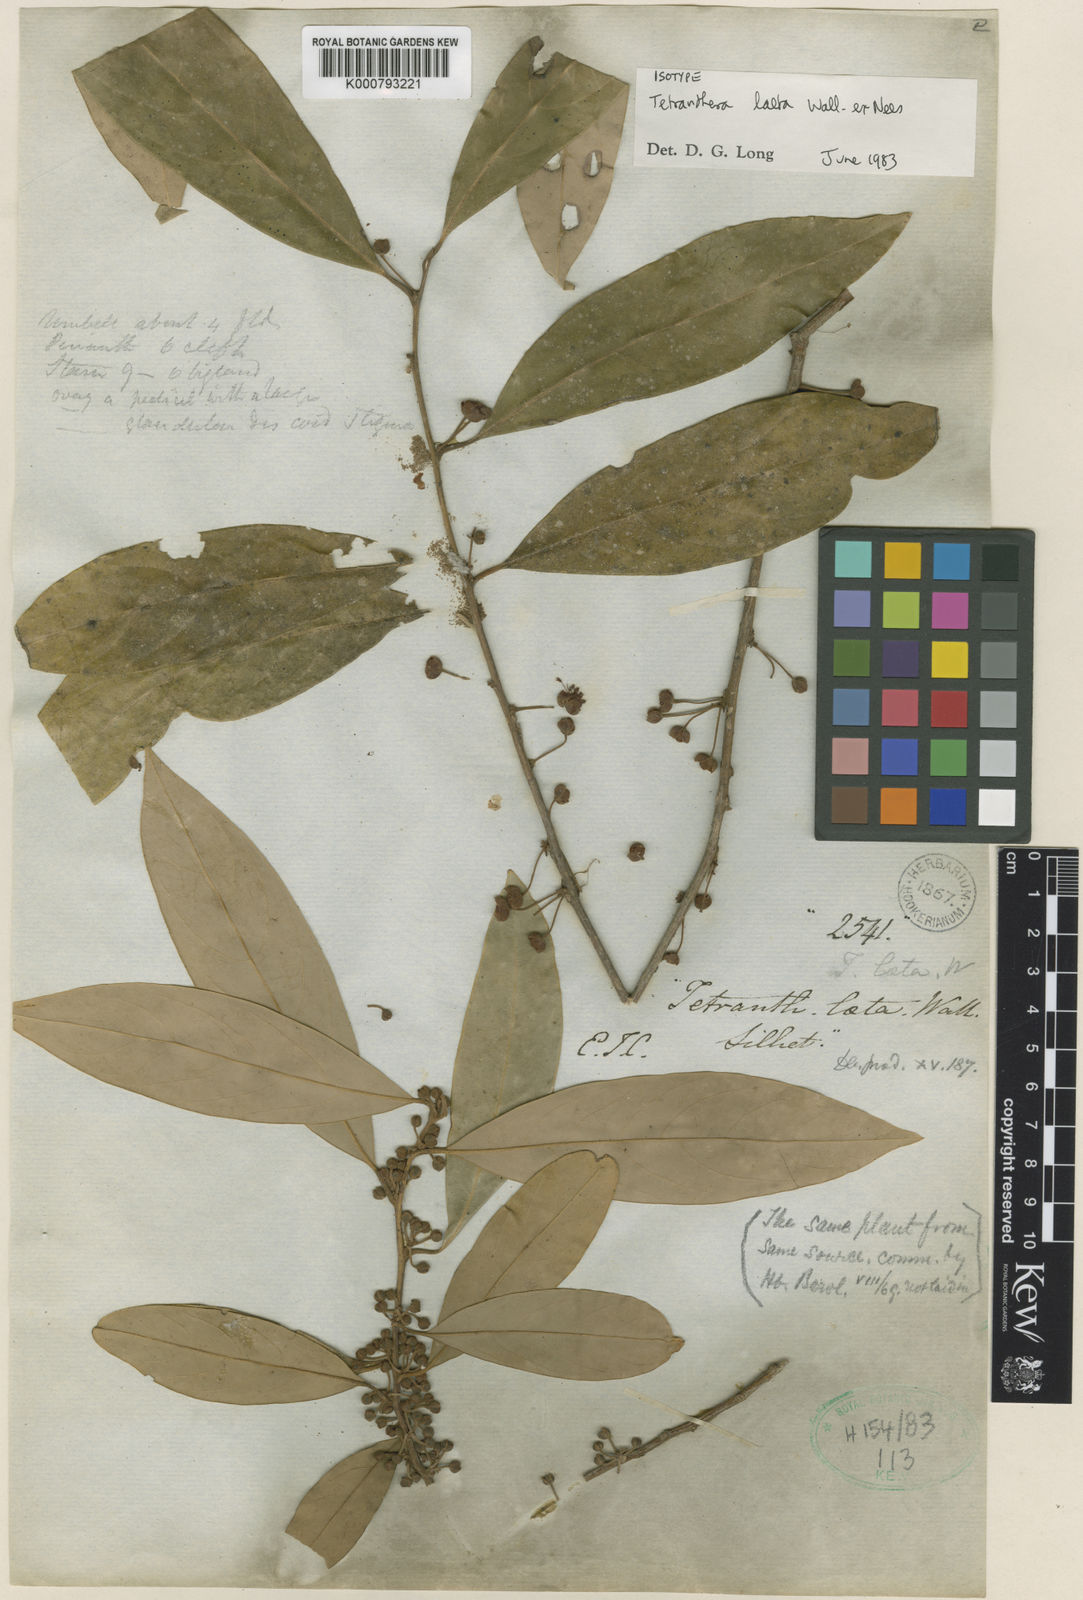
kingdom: Plantae
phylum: Tracheophyta
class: Magnoliopsida
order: Laurales
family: Lauraceae
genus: Litsea
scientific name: Litsea
